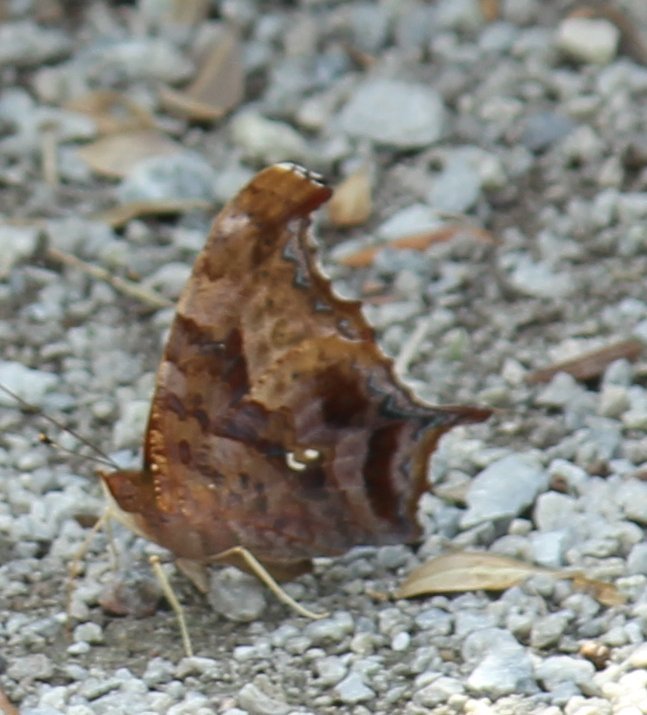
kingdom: Animalia
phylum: Arthropoda
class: Insecta
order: Lepidoptera
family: Nymphalidae
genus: Polygonia
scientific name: Polygonia interrogationis
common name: Question Mark
